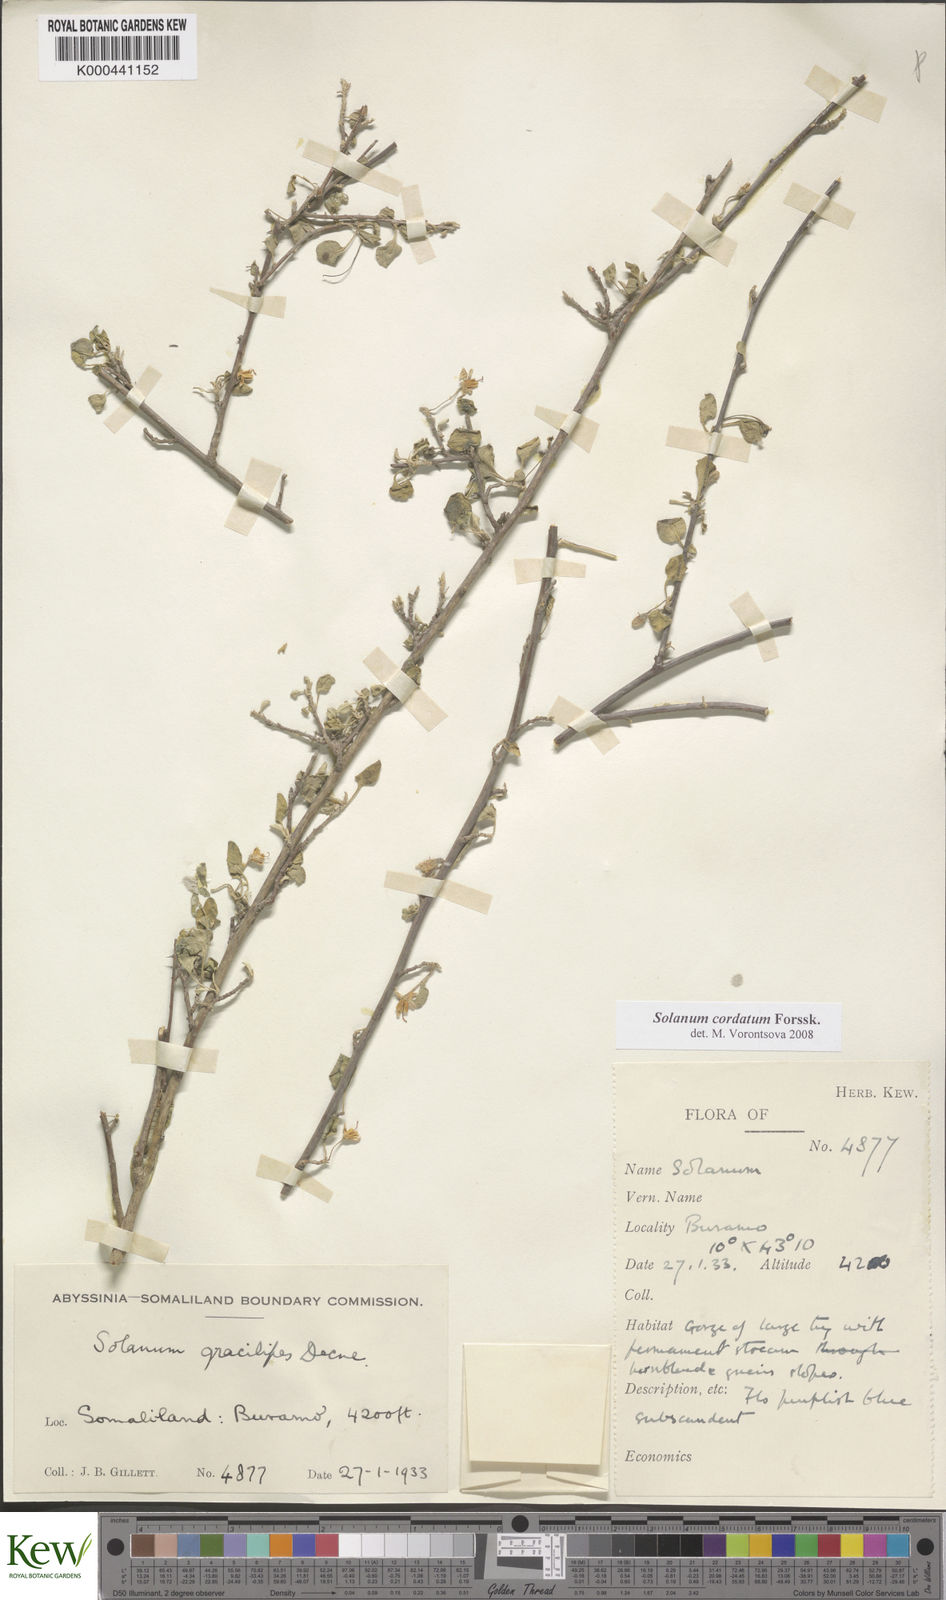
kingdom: Plantae
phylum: Tracheophyta
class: Magnoliopsida
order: Solanales
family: Solanaceae
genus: Solanum
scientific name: Solanum cordatum
